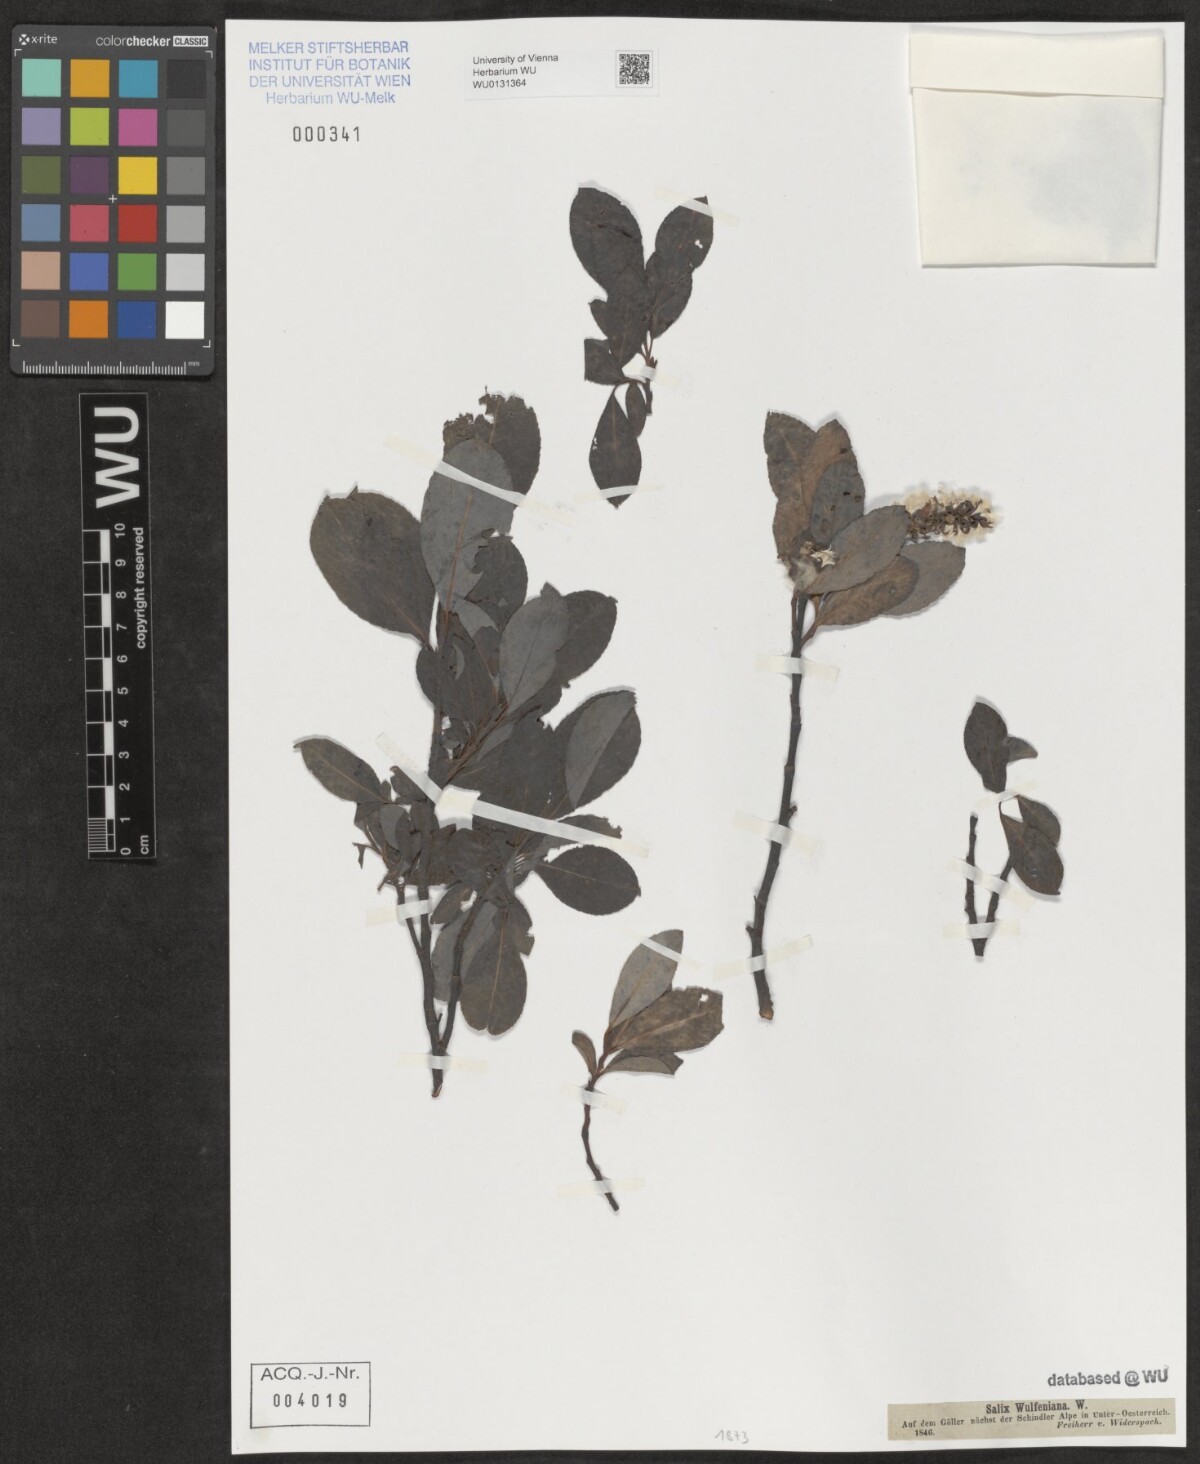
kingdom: Plantae
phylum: Tracheophyta
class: Magnoliopsida
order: Malpighiales
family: Salicaceae
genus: Salix
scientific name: Salix glabra
